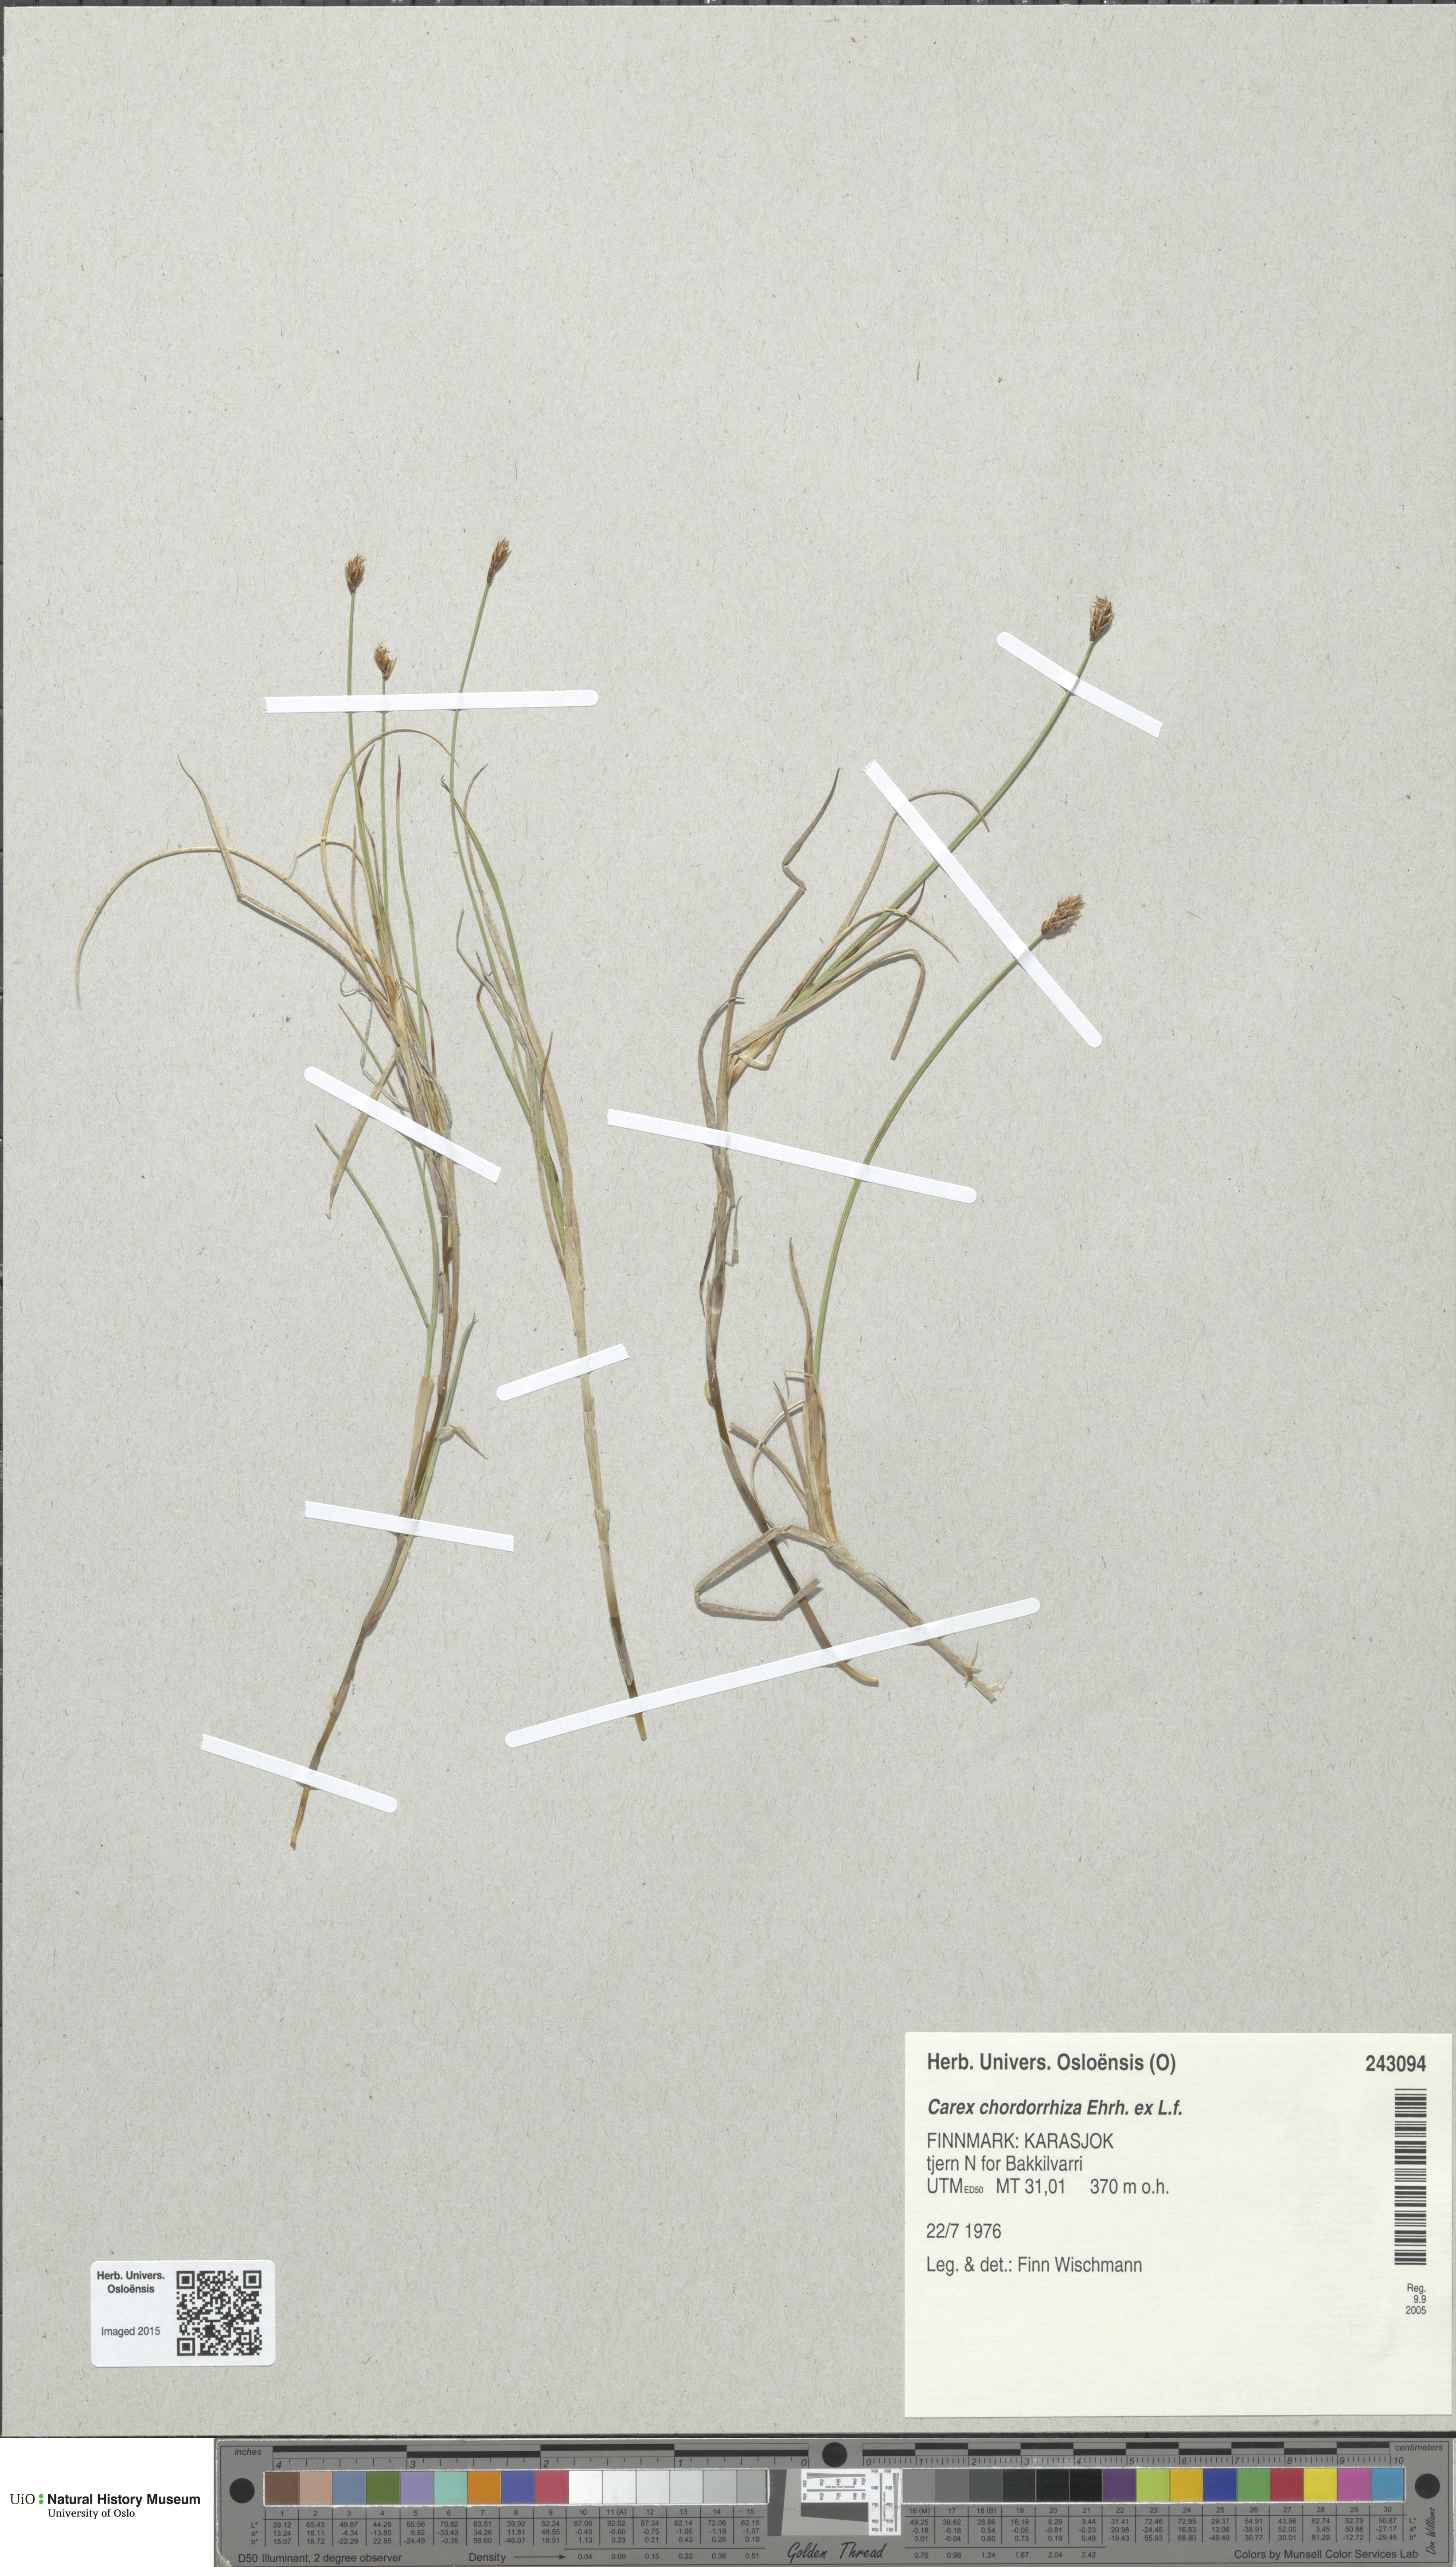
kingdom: Plantae
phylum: Tracheophyta
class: Liliopsida
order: Poales
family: Cyperaceae
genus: Carex
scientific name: Carex chordorrhiza
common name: String sedge
